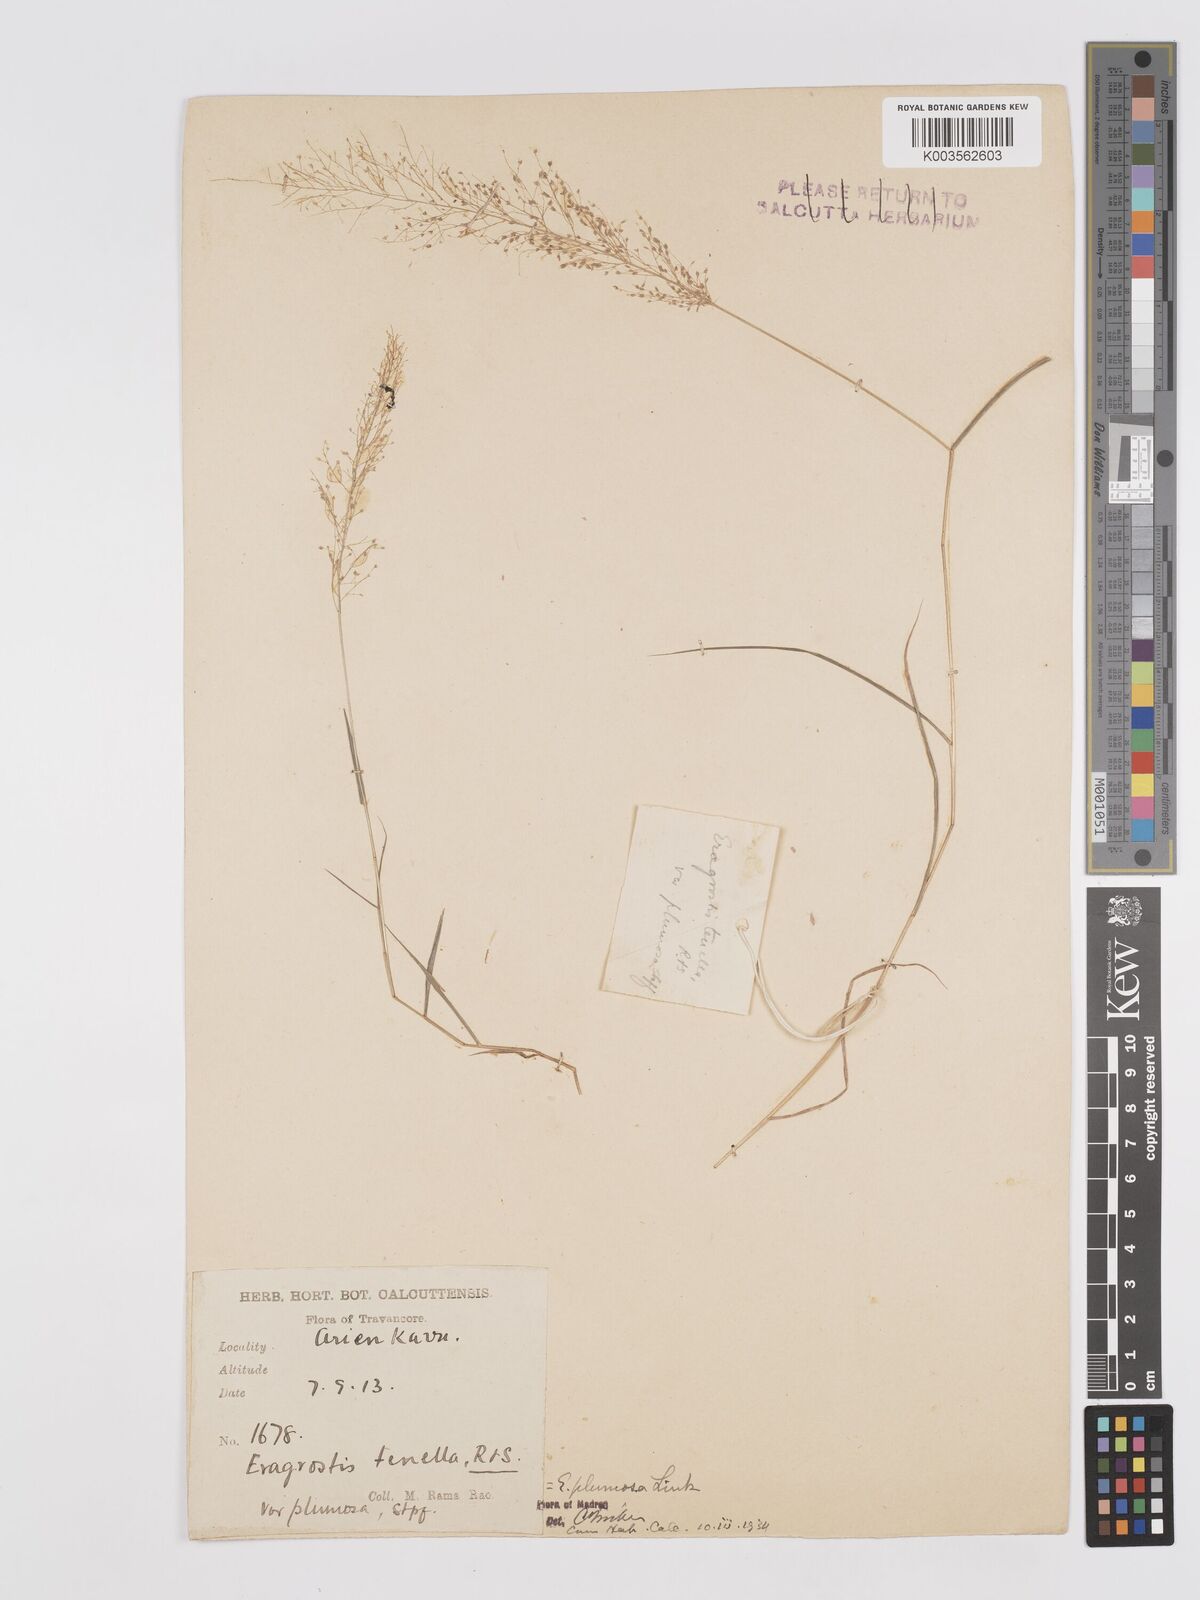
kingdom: Plantae
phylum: Tracheophyta
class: Liliopsida
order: Poales
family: Poaceae
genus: Eragrostis
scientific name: Eragrostis tenella
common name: Japanese lovegrass
